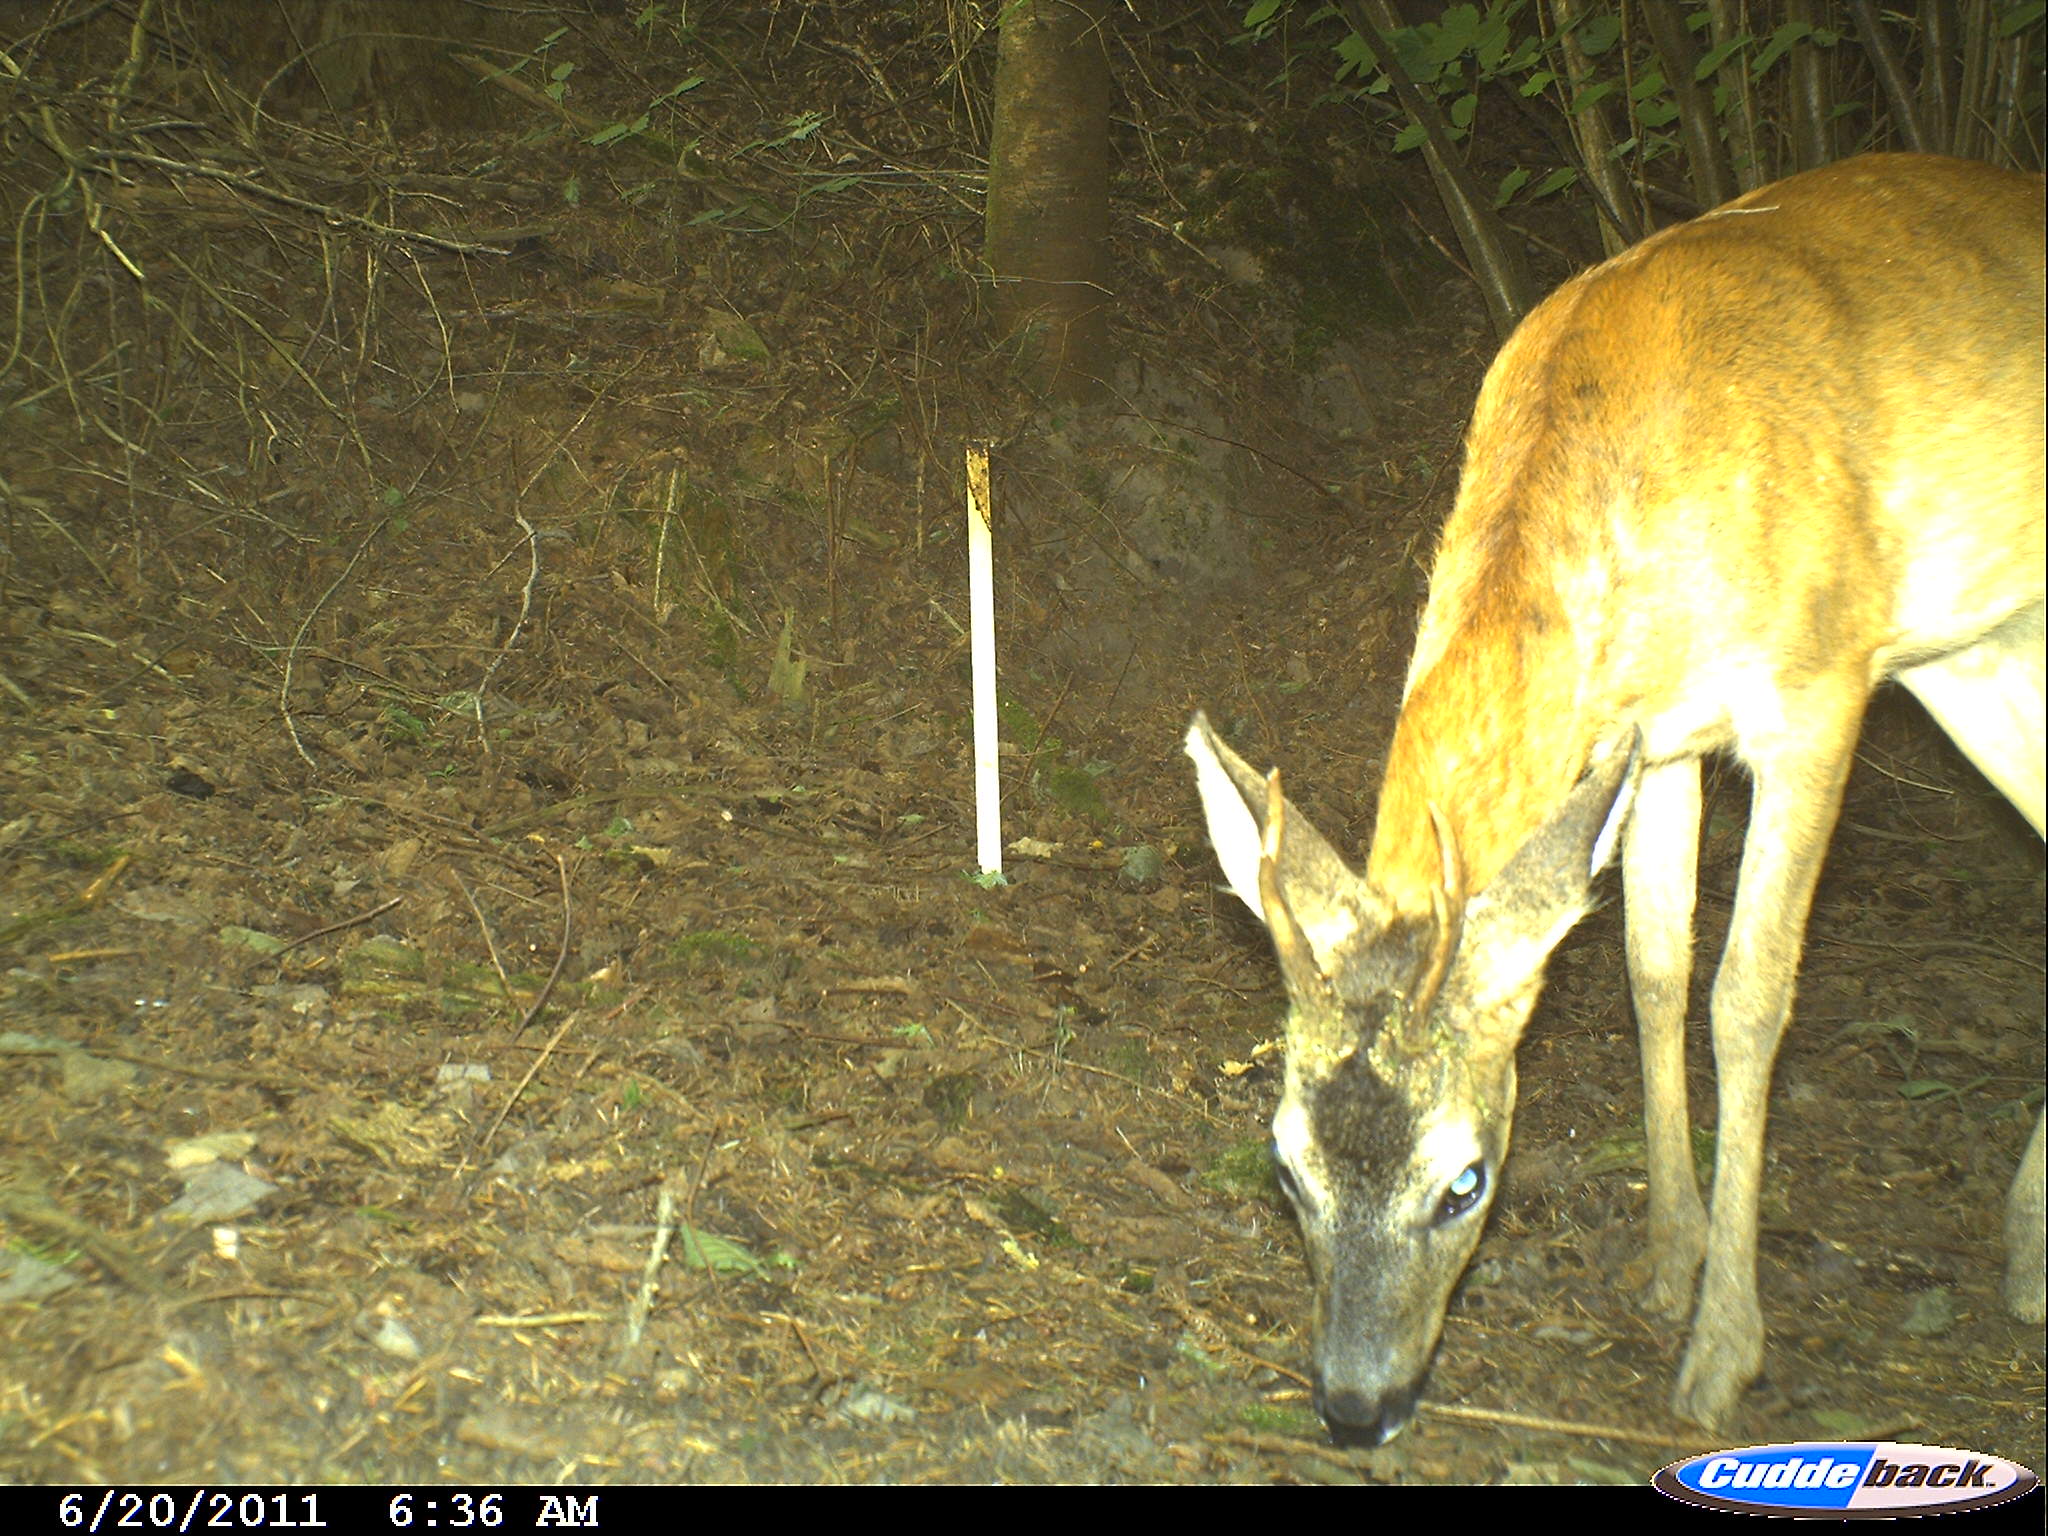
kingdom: Animalia
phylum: Chordata
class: Mammalia
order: Artiodactyla
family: Cervidae
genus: Capreolus
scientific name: Capreolus capreolus
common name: Western roe deer
